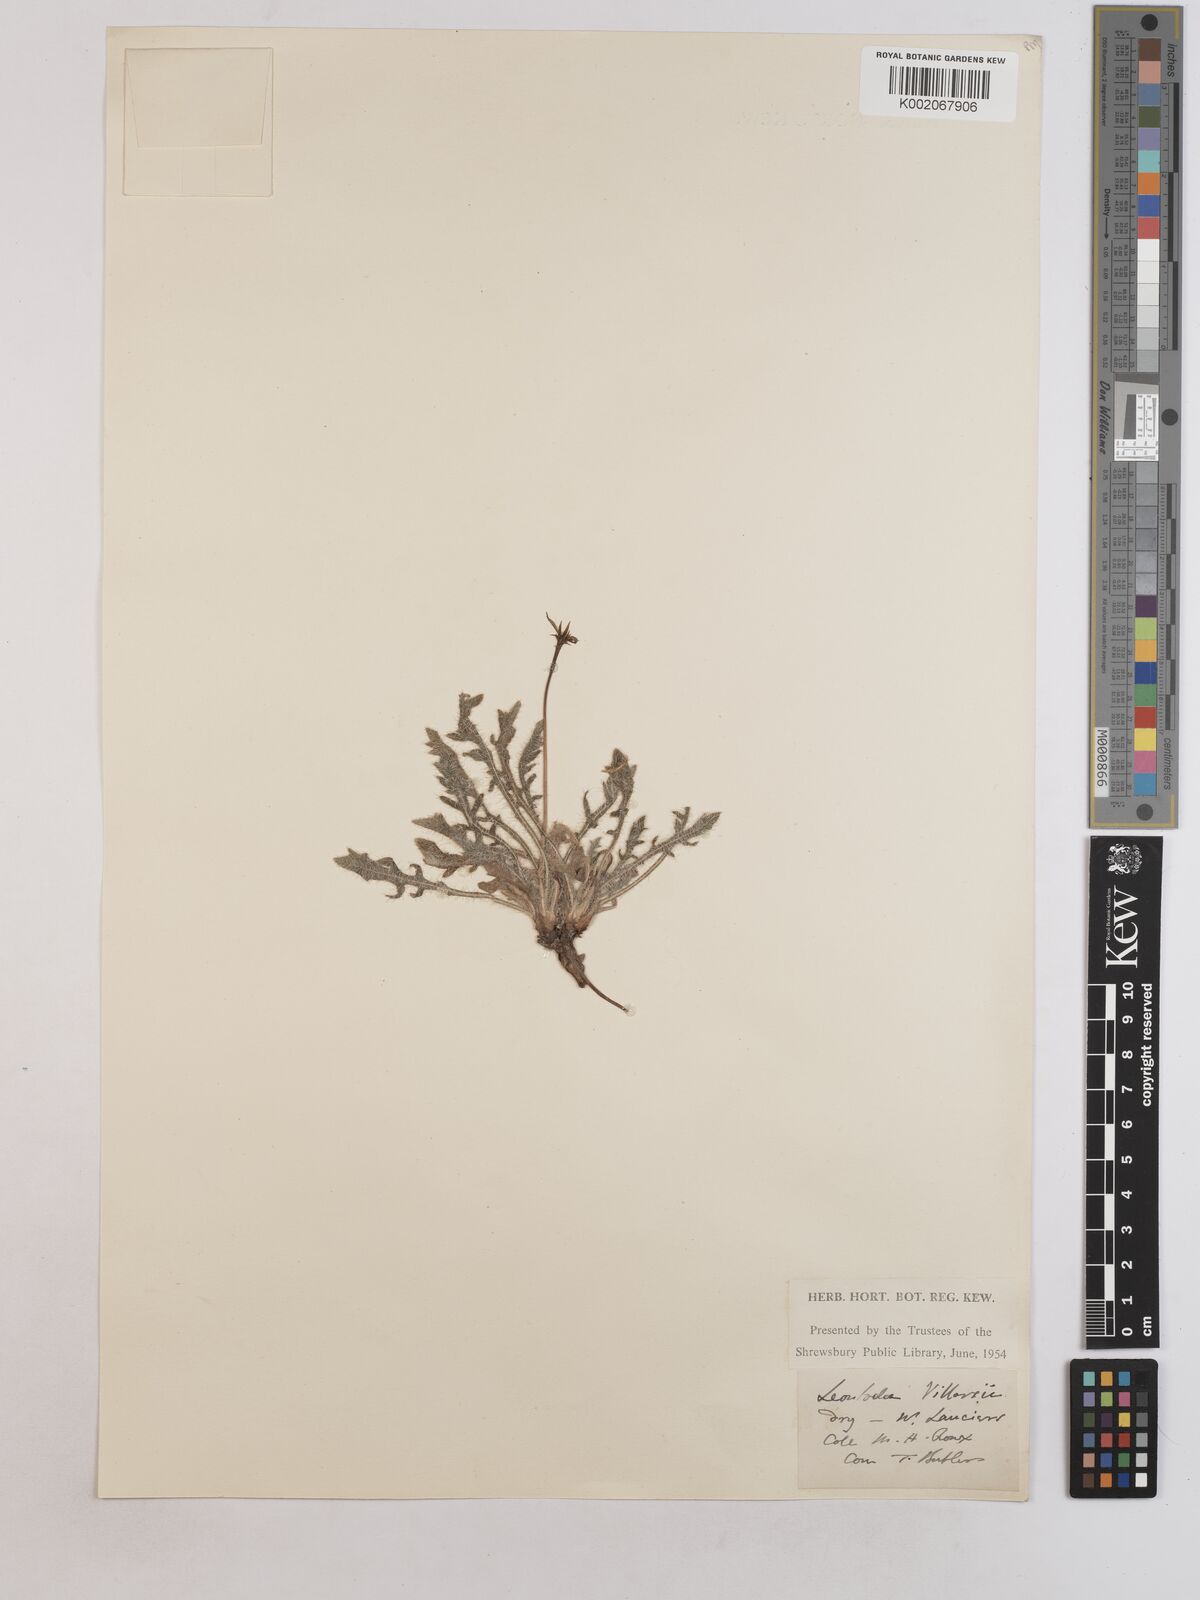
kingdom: Plantae
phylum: Tracheophyta
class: Magnoliopsida
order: Asterales
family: Asteraceae
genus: Leontodon
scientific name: Leontodon hirtus
